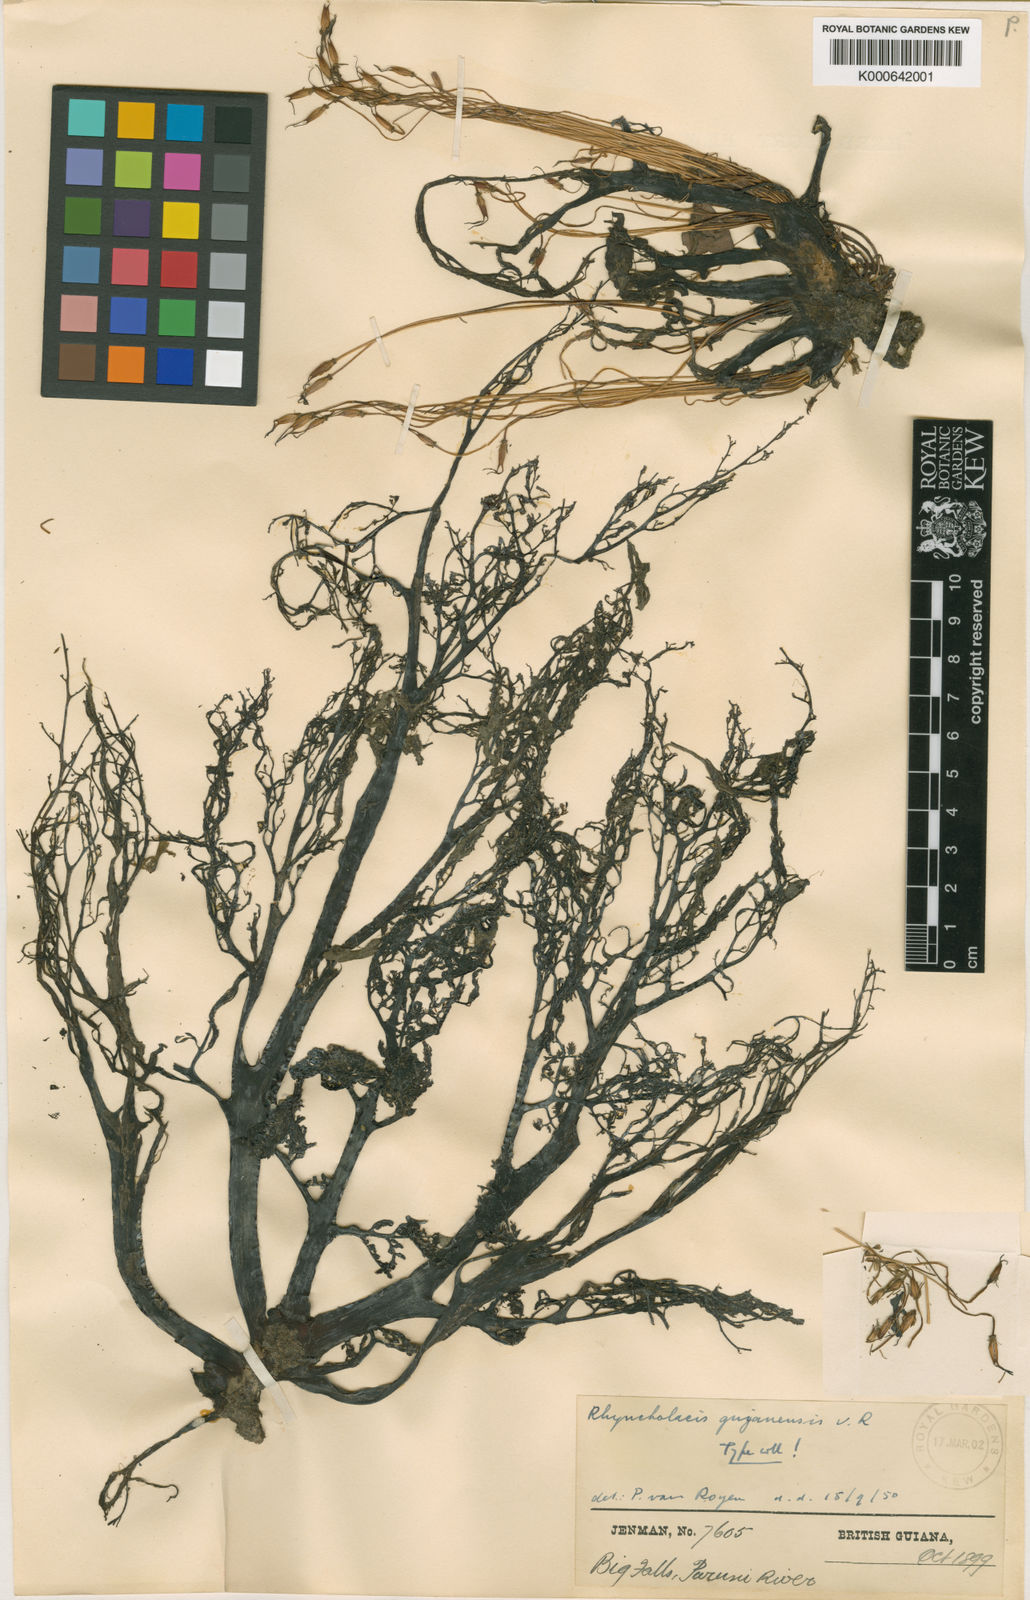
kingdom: Plantae
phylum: Tracheophyta
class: Magnoliopsida
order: Malpighiales
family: Podostemaceae
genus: Rhyncholacis
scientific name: Rhyncholacis guyanensis
